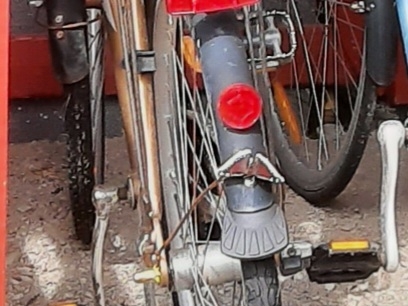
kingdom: Animalia
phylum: Arthropoda
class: Insecta
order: Lepidoptera
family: Nymphalidae
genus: Nymphalis
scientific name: Nymphalis antiopa
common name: Sørgekåbe
